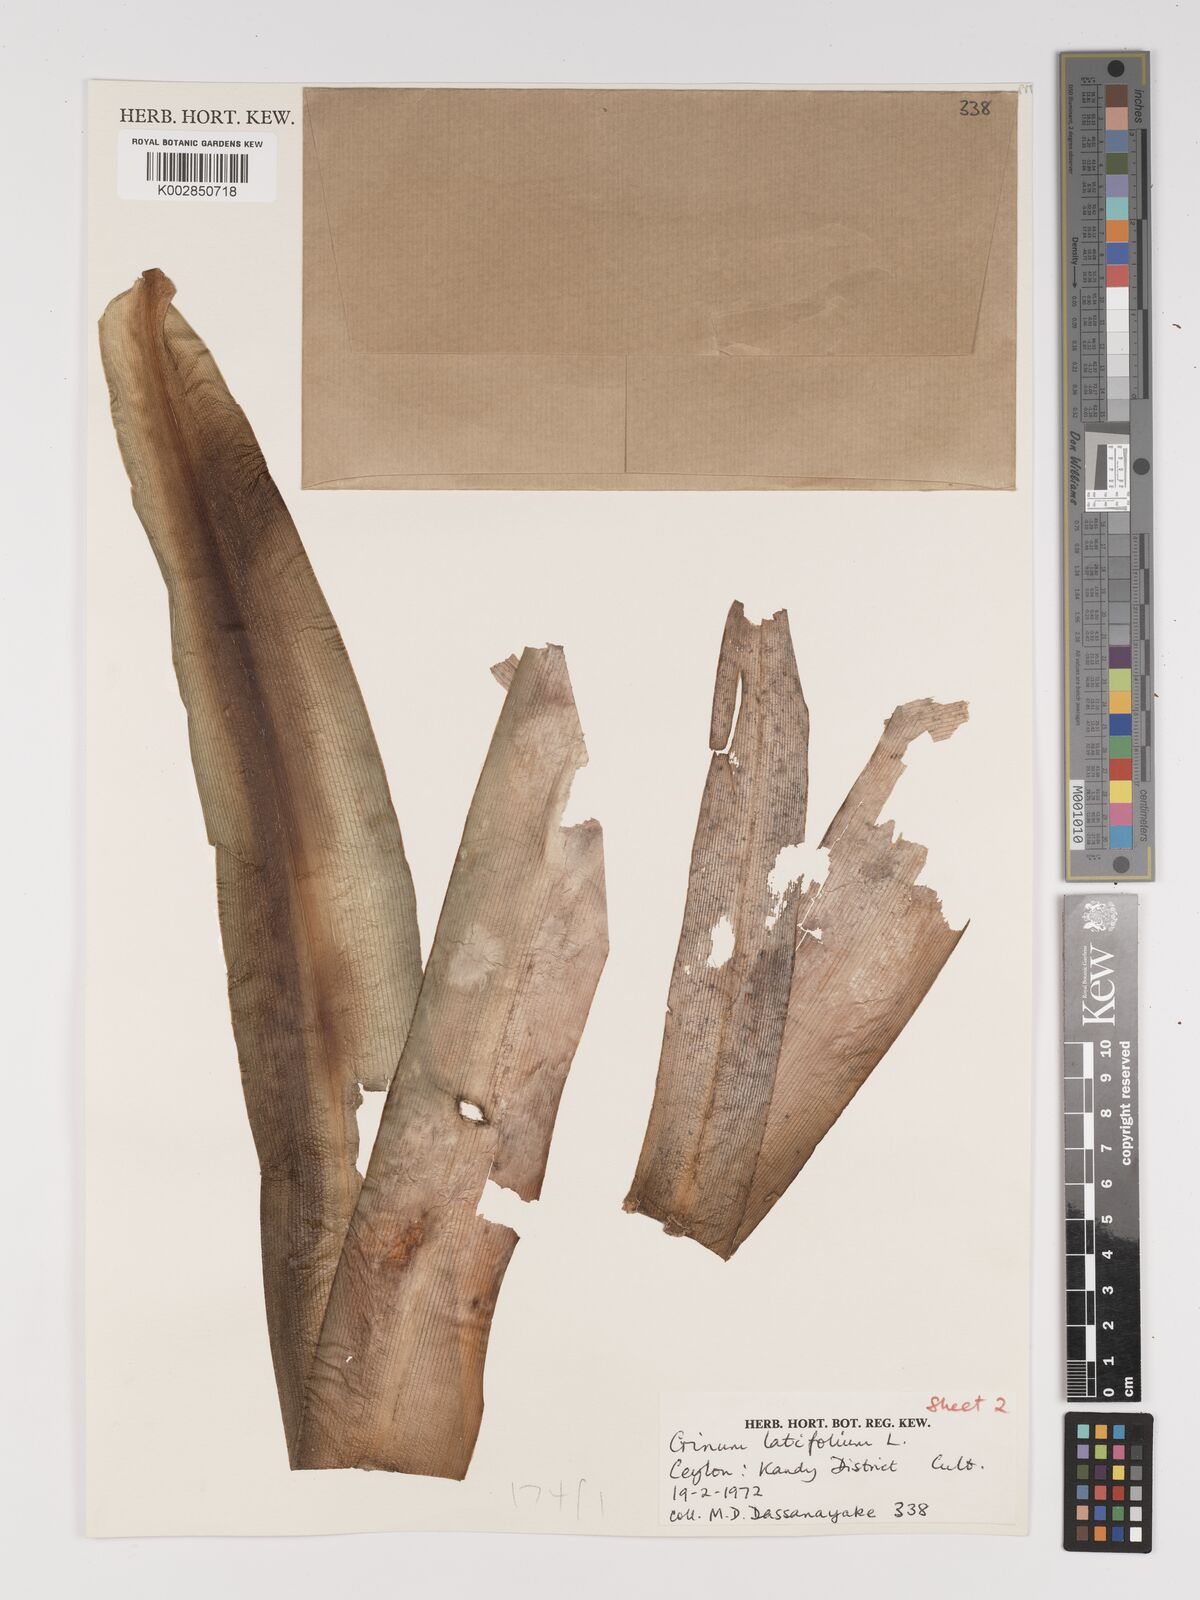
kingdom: Plantae
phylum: Tracheophyta
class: Liliopsida
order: Asparagales
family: Amaryllidaceae
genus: Crinum
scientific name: Crinum latifolium
